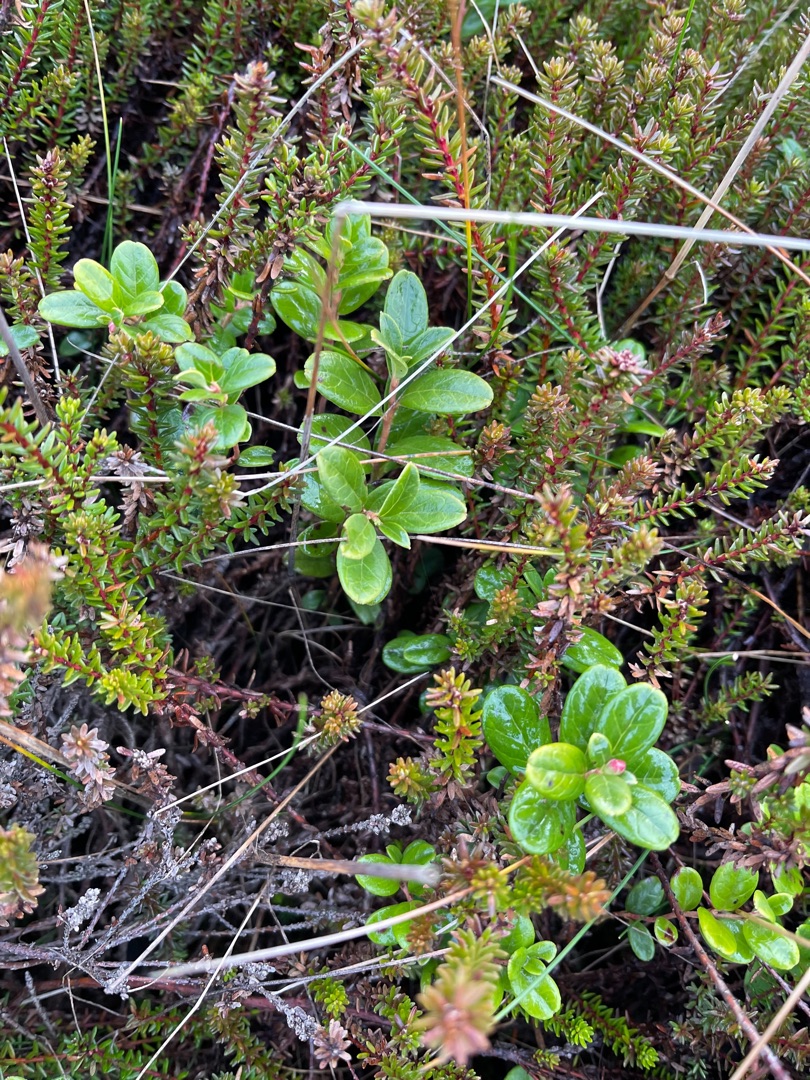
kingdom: Plantae
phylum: Tracheophyta
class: Magnoliopsida
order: Ericales
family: Ericaceae
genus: Vaccinium
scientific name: Vaccinium vitis-idaea
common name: Tyttebær
